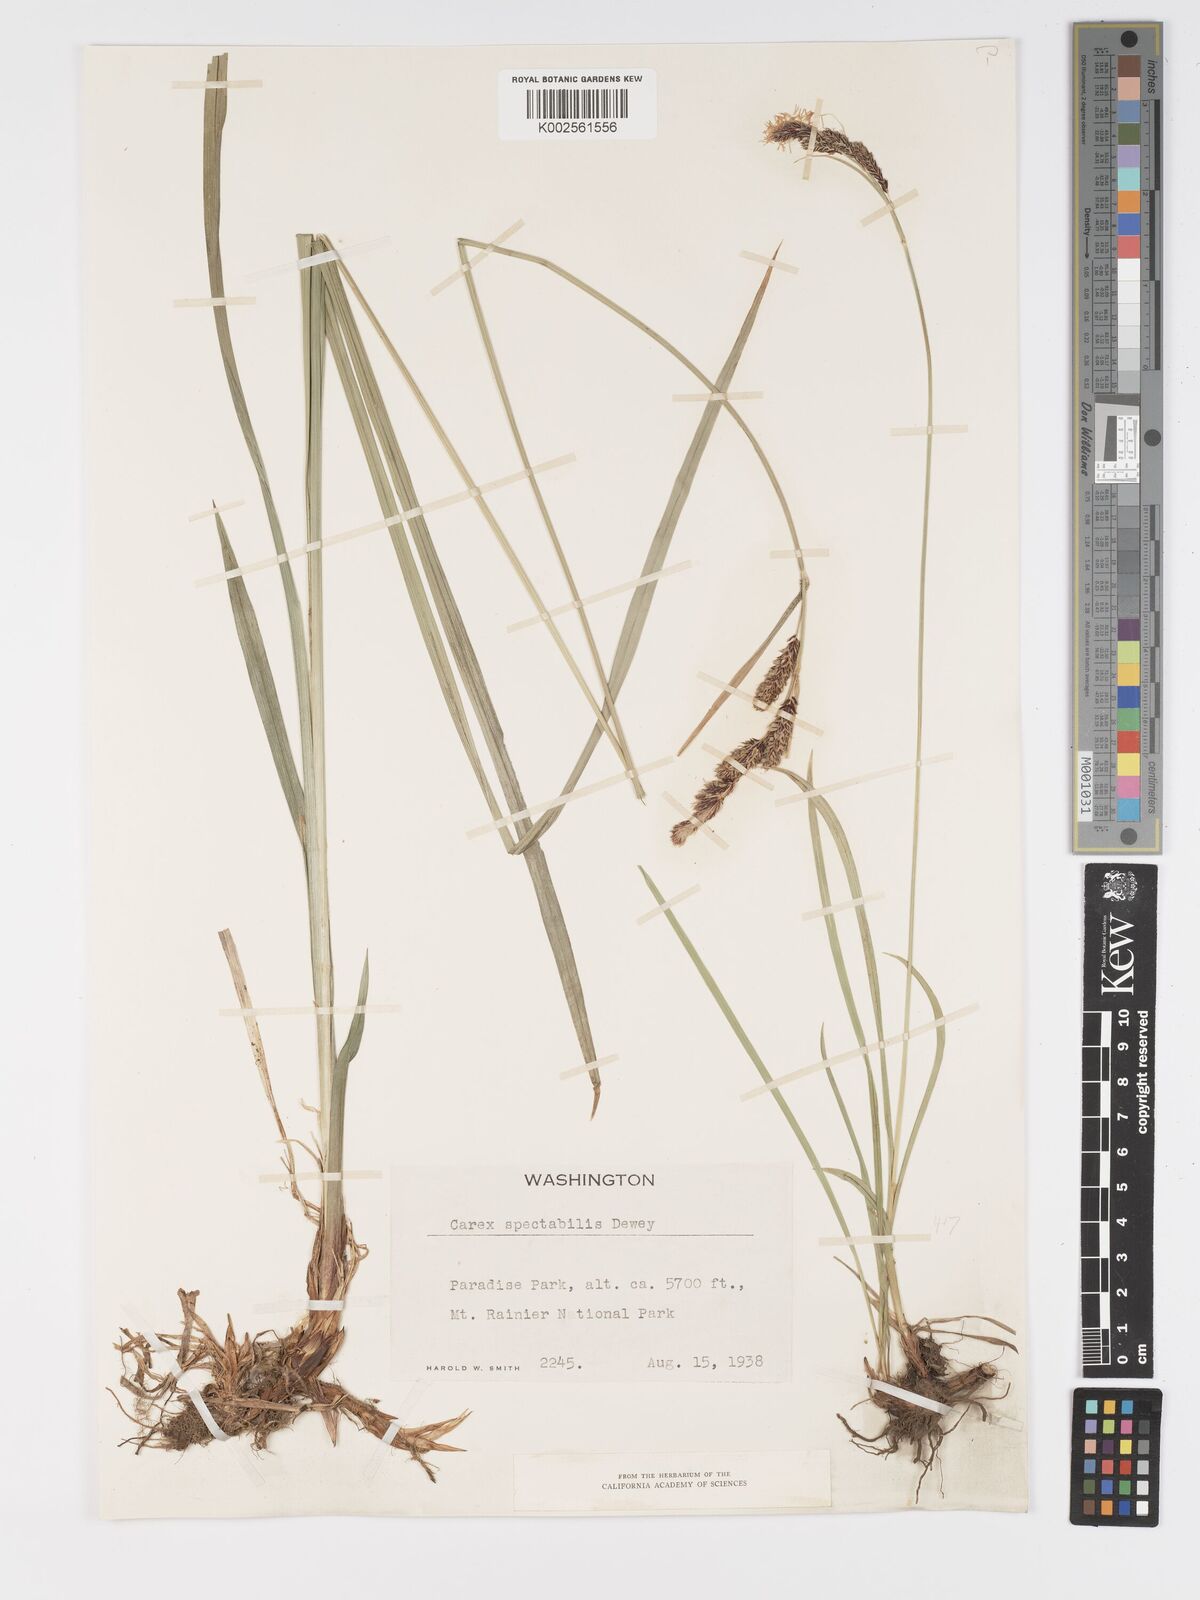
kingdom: Plantae
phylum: Tracheophyta
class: Liliopsida
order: Poales
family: Cyperaceae
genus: Carex
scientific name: Carex spectabilis
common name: Northwestern showy sedge
